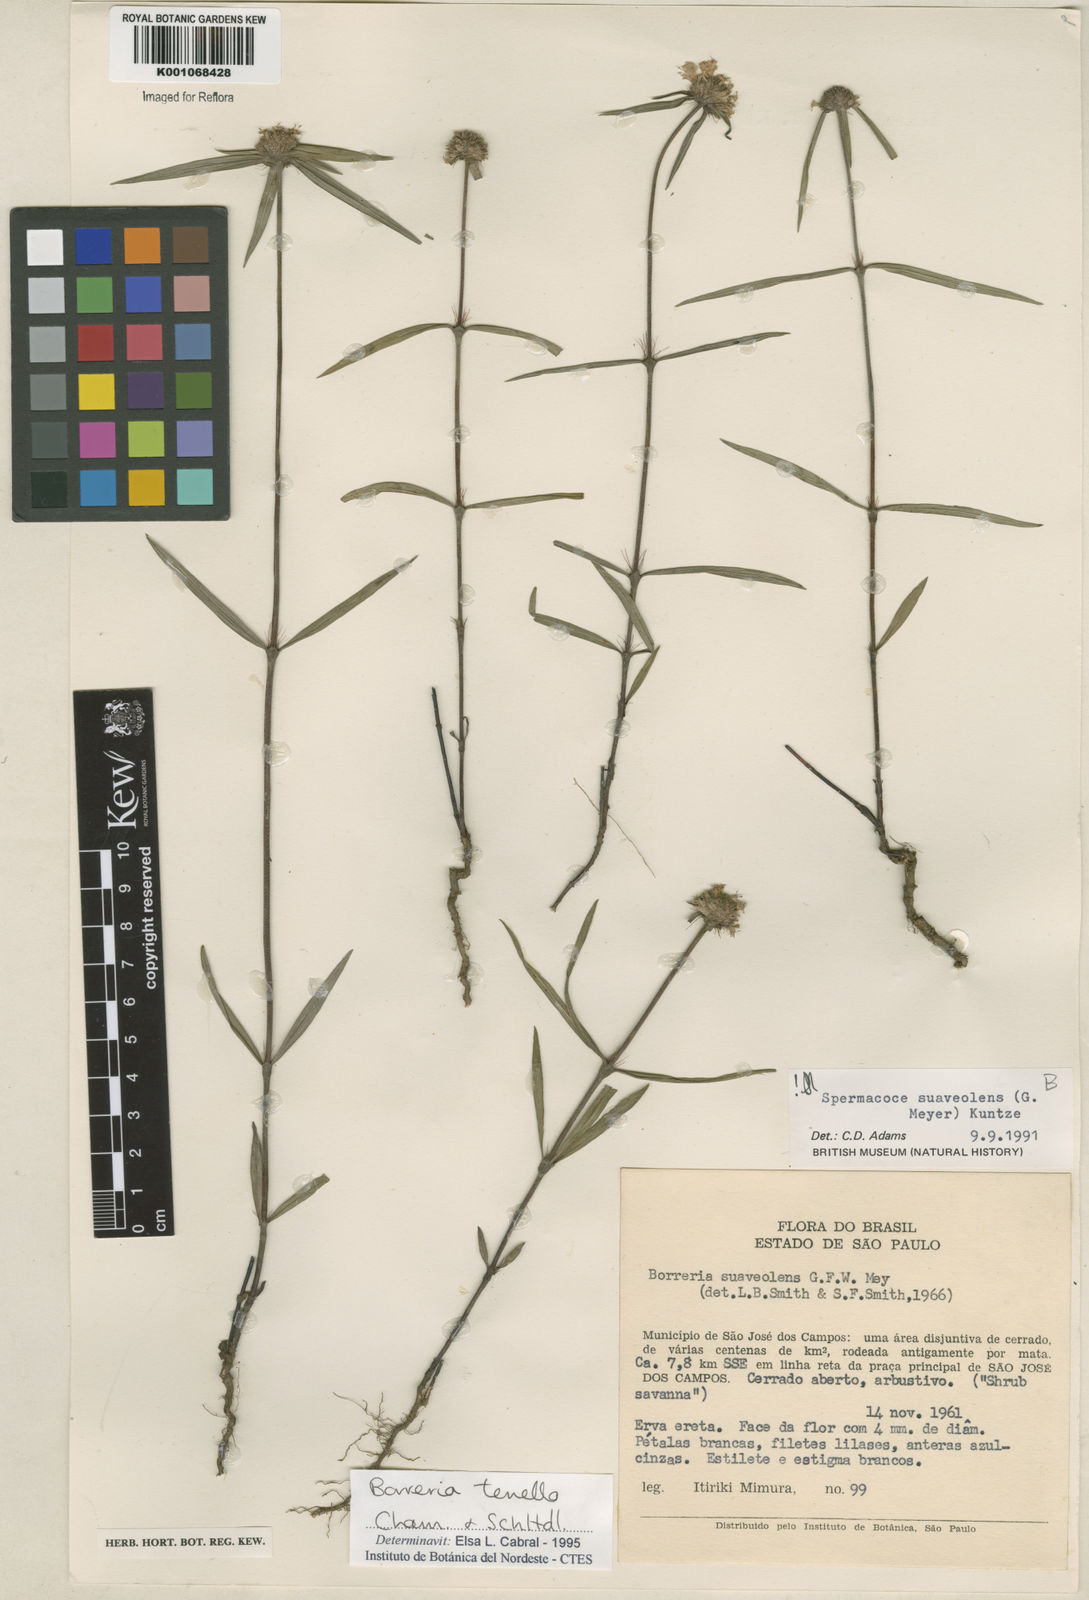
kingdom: Plantae
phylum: Tracheophyta
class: Magnoliopsida
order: Gentianales
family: Rubiaceae
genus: Spermacoce
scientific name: Spermacoce suaveolens
